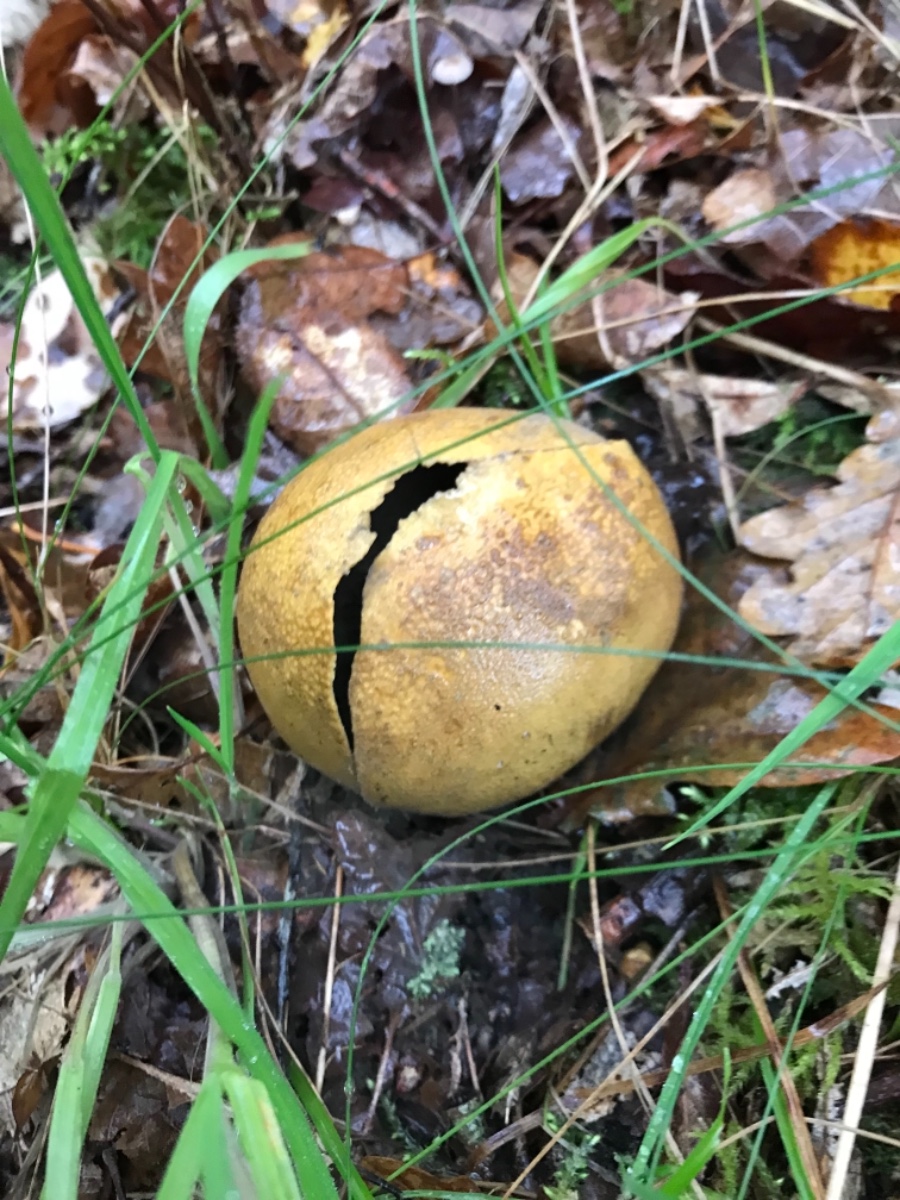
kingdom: Fungi
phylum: Basidiomycota
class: Agaricomycetes
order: Boletales
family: Sclerodermataceae
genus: Scleroderma
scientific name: Scleroderma
